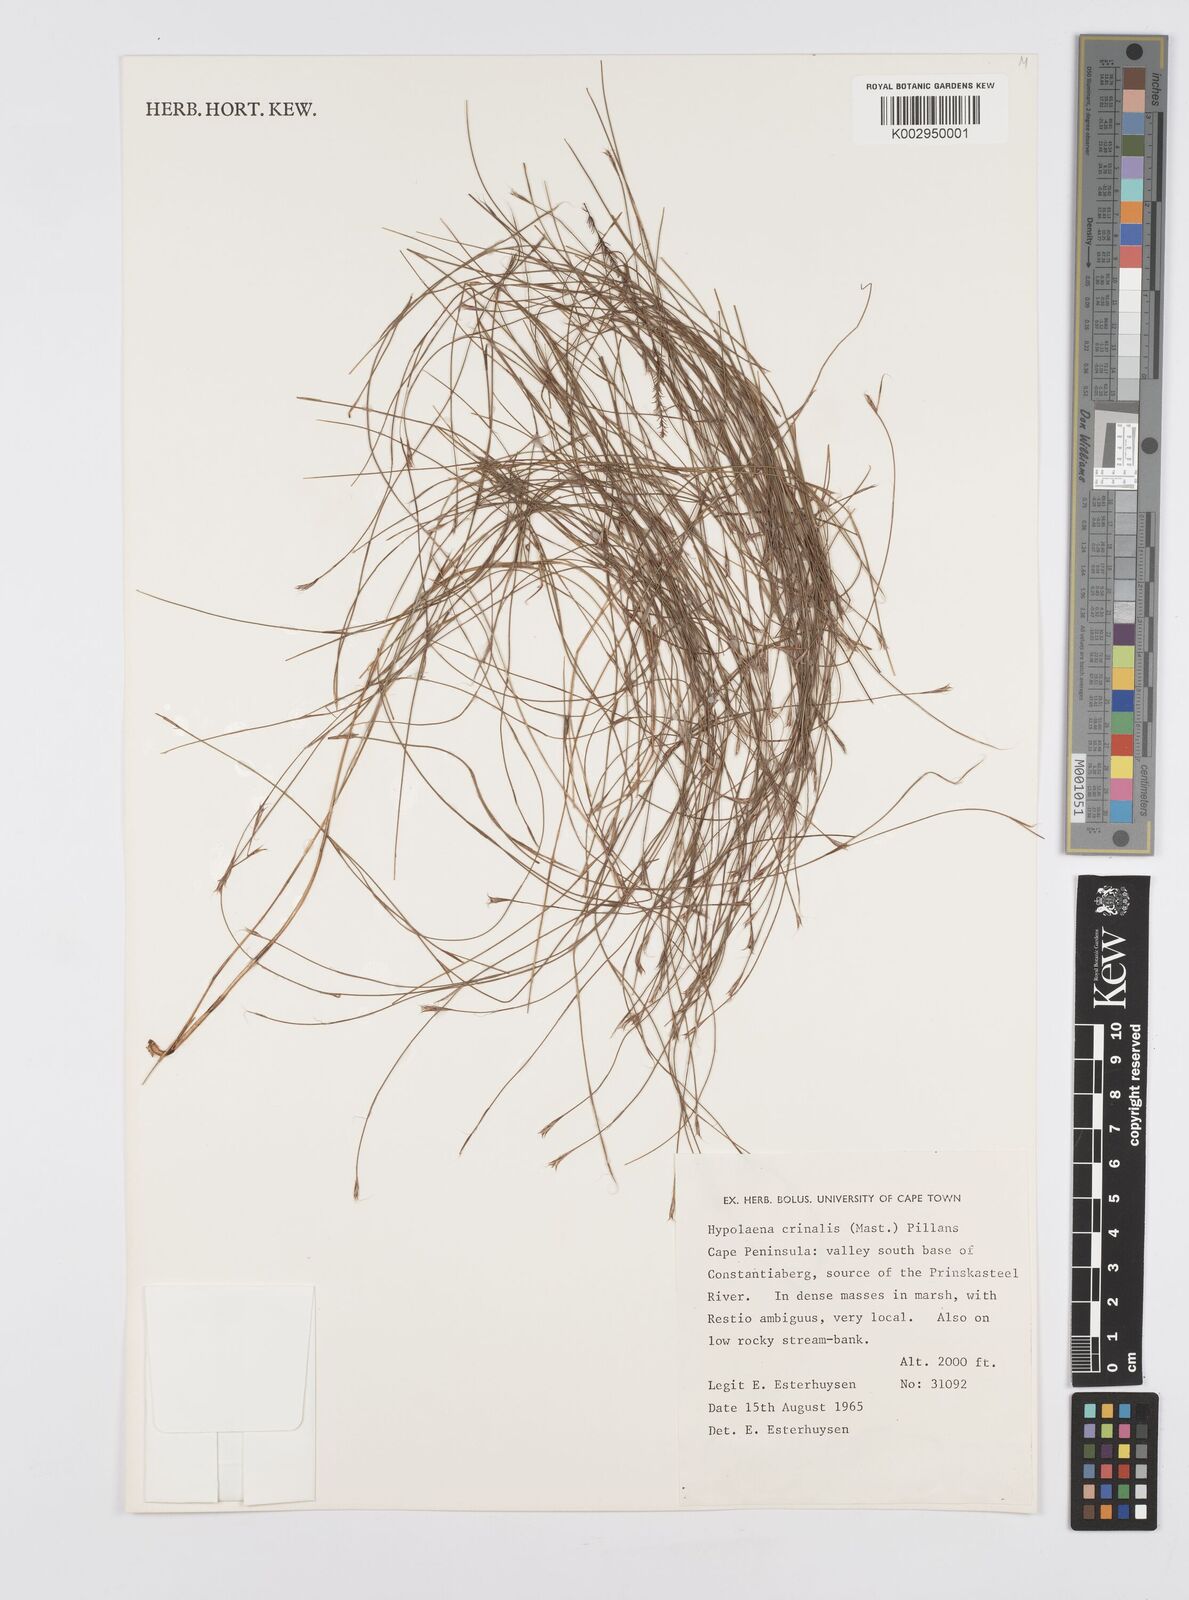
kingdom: Plantae
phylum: Tracheophyta
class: Liliopsida
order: Poales
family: Restionaceae
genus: Anthochortus
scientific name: Anthochortus crinalis
